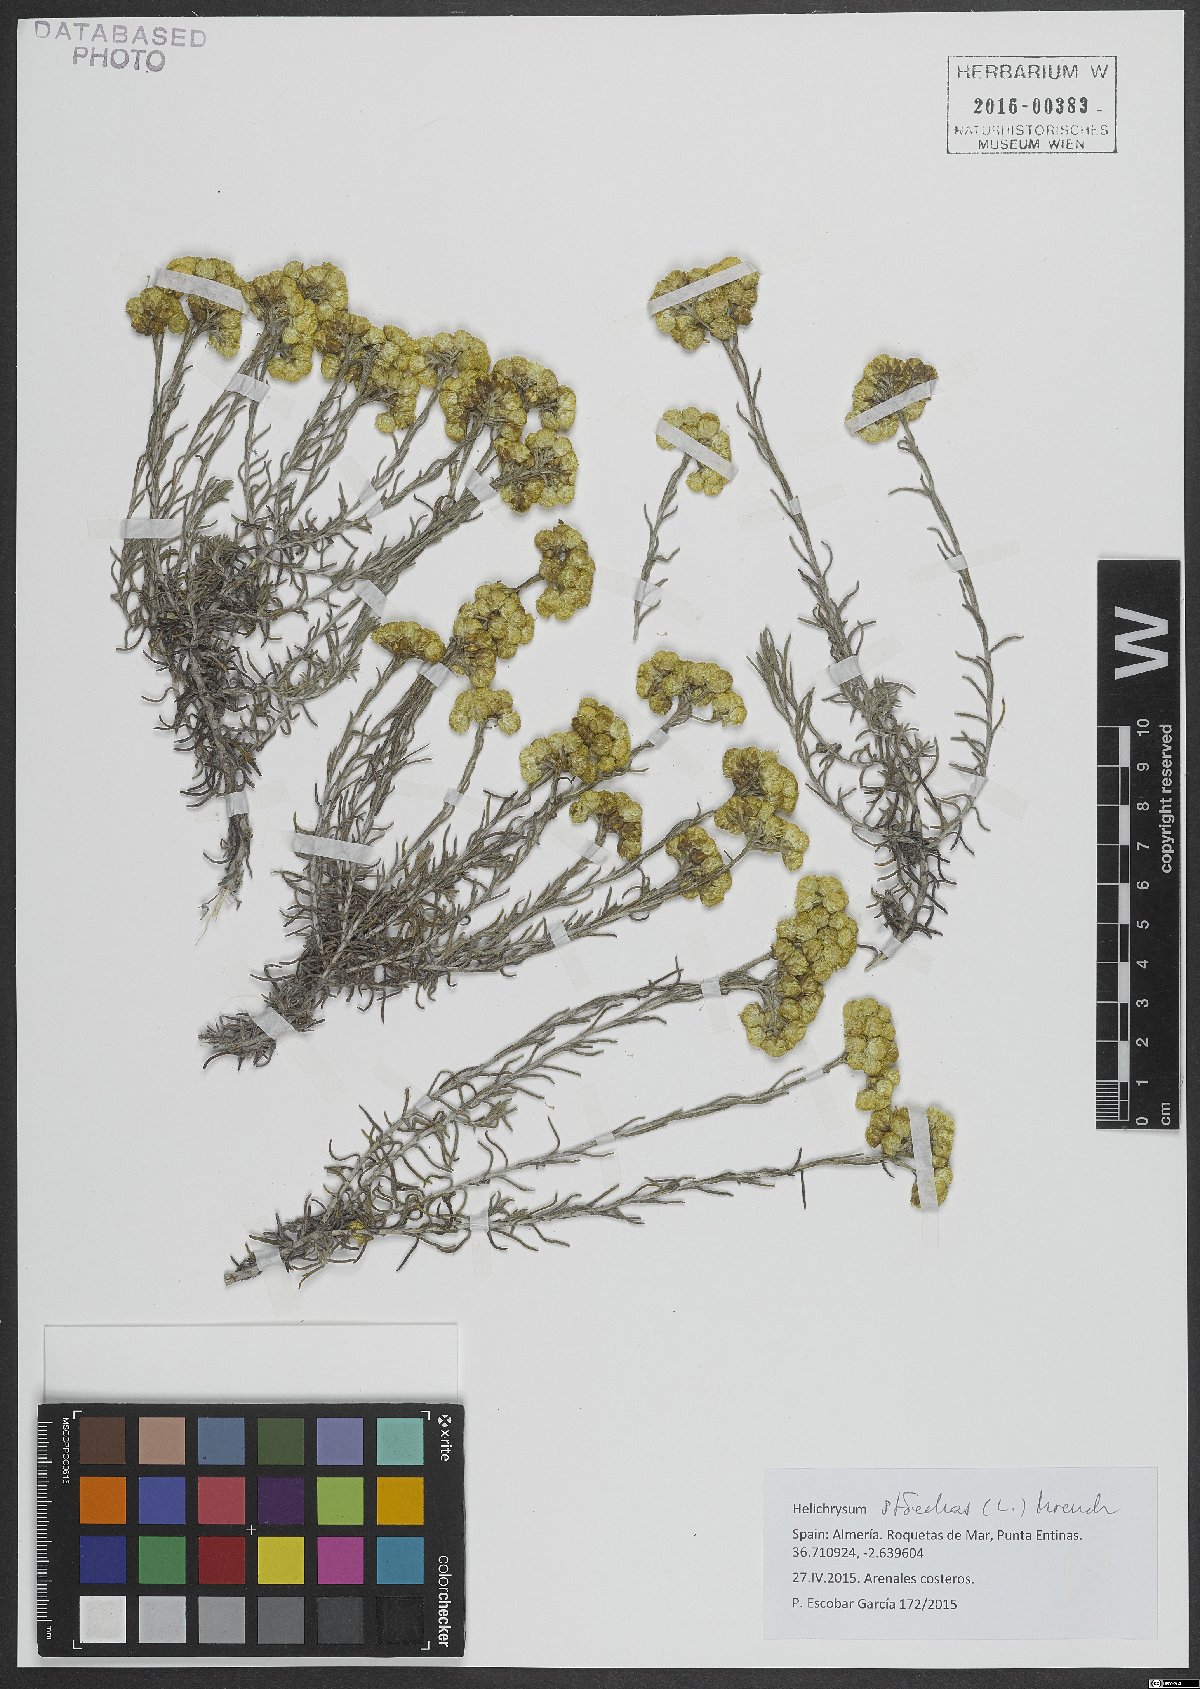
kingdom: Plantae
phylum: Tracheophyta
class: Magnoliopsida
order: Asterales
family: Asteraceae
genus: Helichrysum
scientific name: Helichrysum stoechas
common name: Goldilocks
